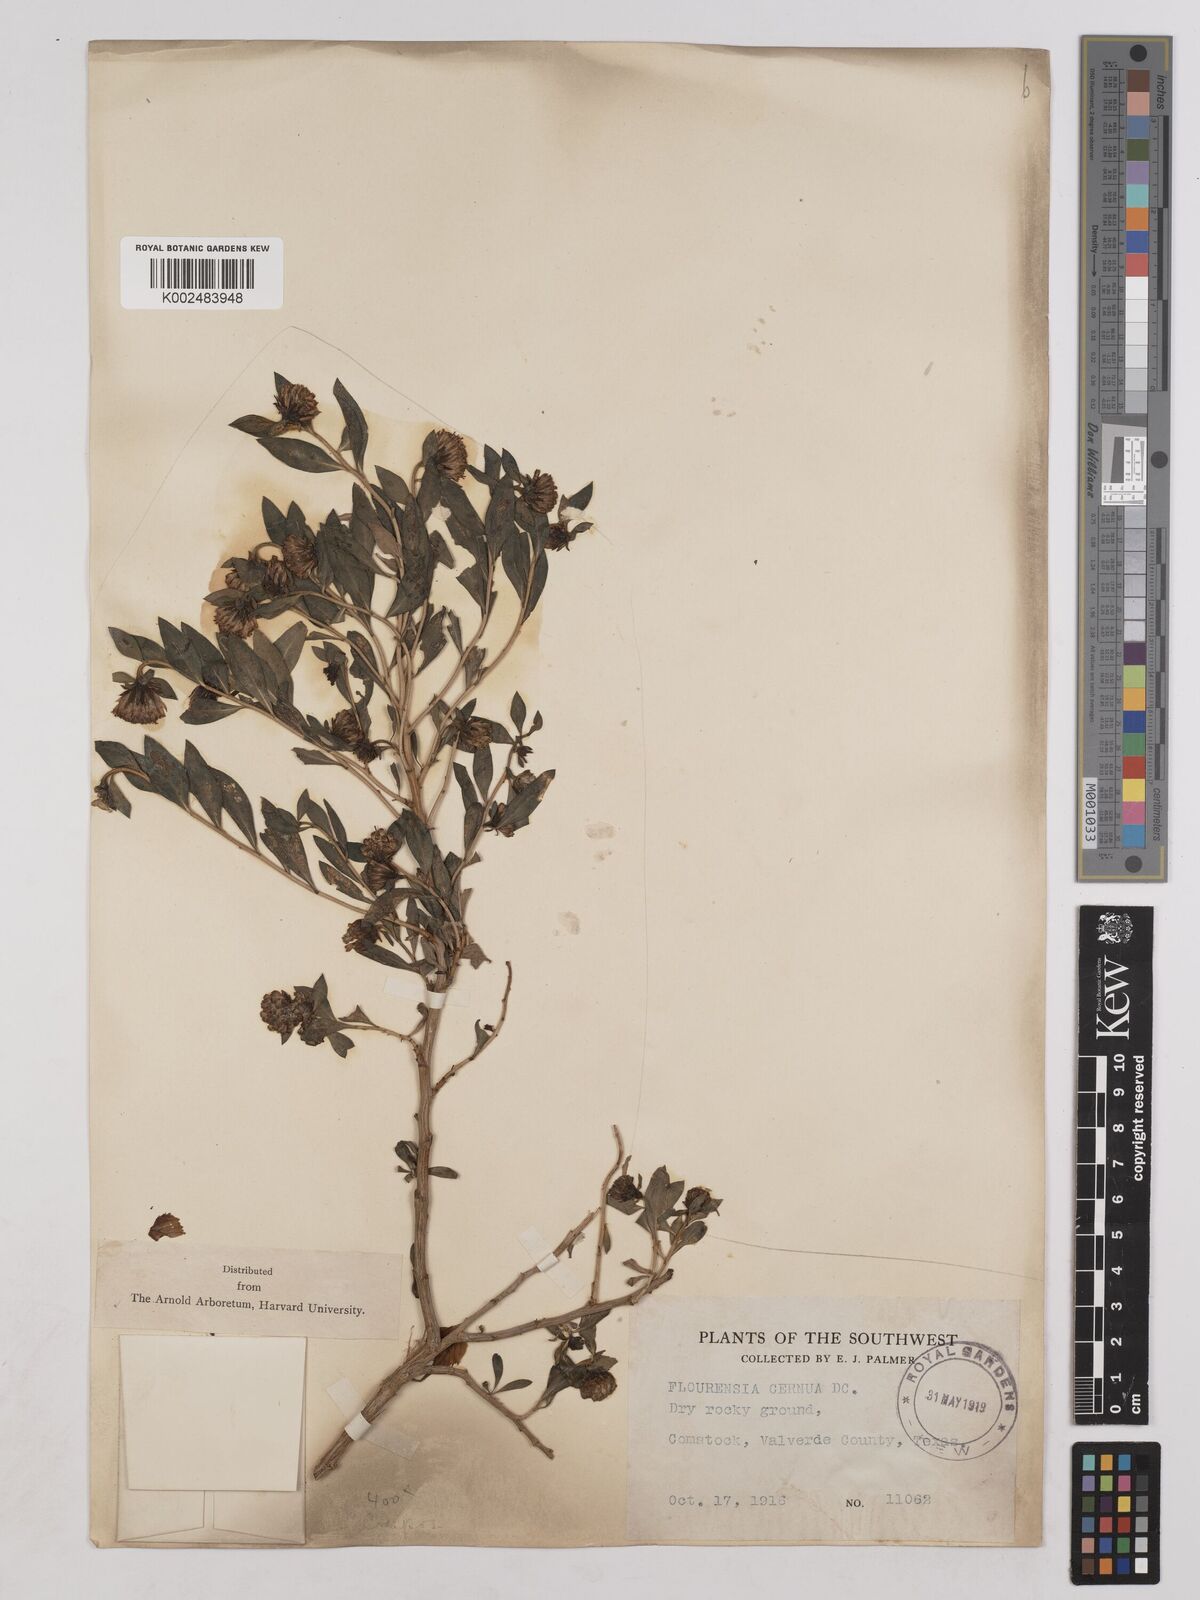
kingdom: Plantae
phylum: Tracheophyta
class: Magnoliopsida
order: Asterales
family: Asteraceae
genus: Flourensia
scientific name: Flourensia cernua
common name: Varnishbush
